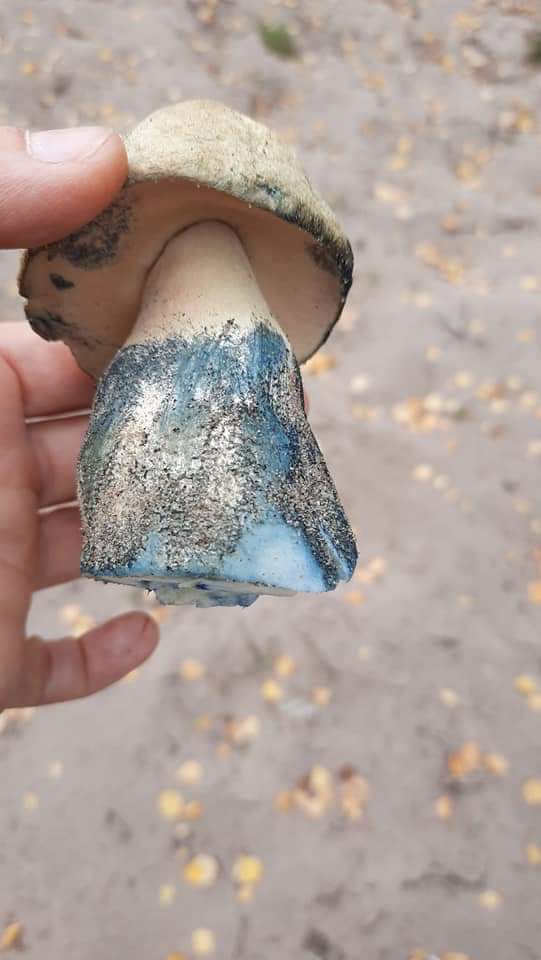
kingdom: Fungi
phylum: Basidiomycota
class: Agaricomycetes
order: Boletales
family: Gyroporaceae
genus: Gyroporus
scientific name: Gyroporus cyanescens
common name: blånende kammerrørhat
